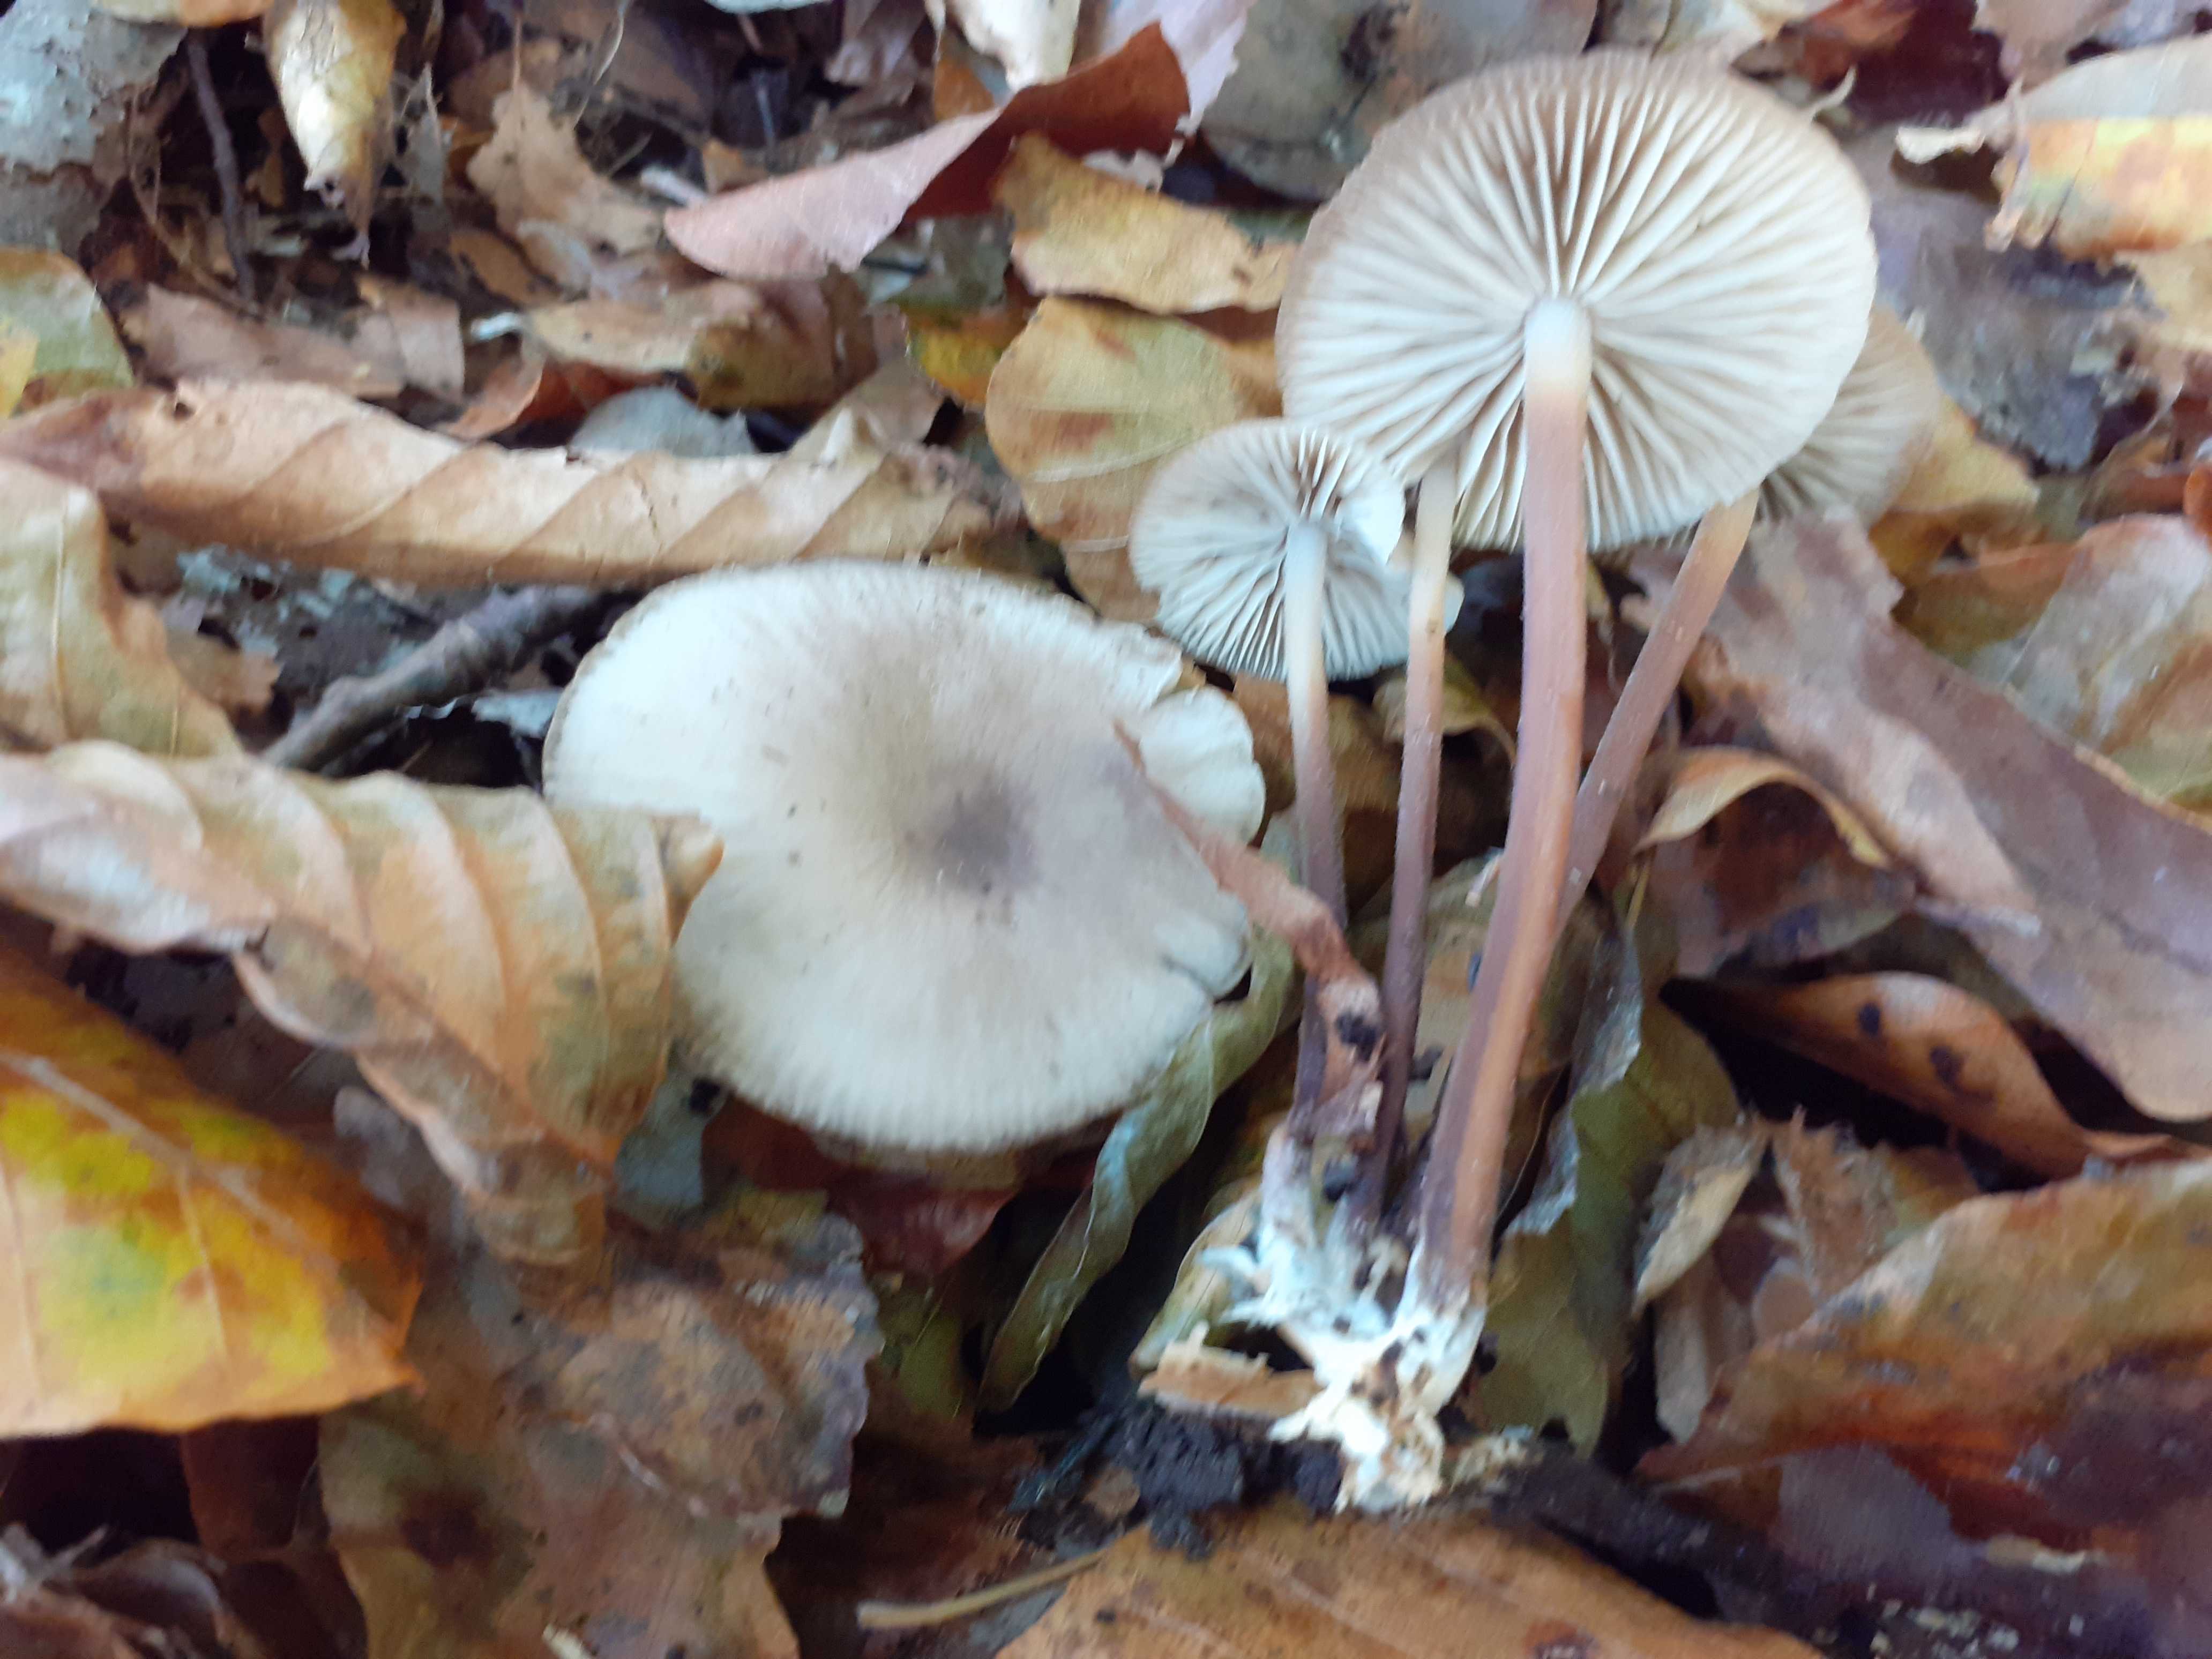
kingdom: Fungi
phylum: Basidiomycota
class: Agaricomycetes
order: Agaricales
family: Marasmiaceae
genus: Marasmius
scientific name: Marasmius wynneae
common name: hvælvet bruskhat
